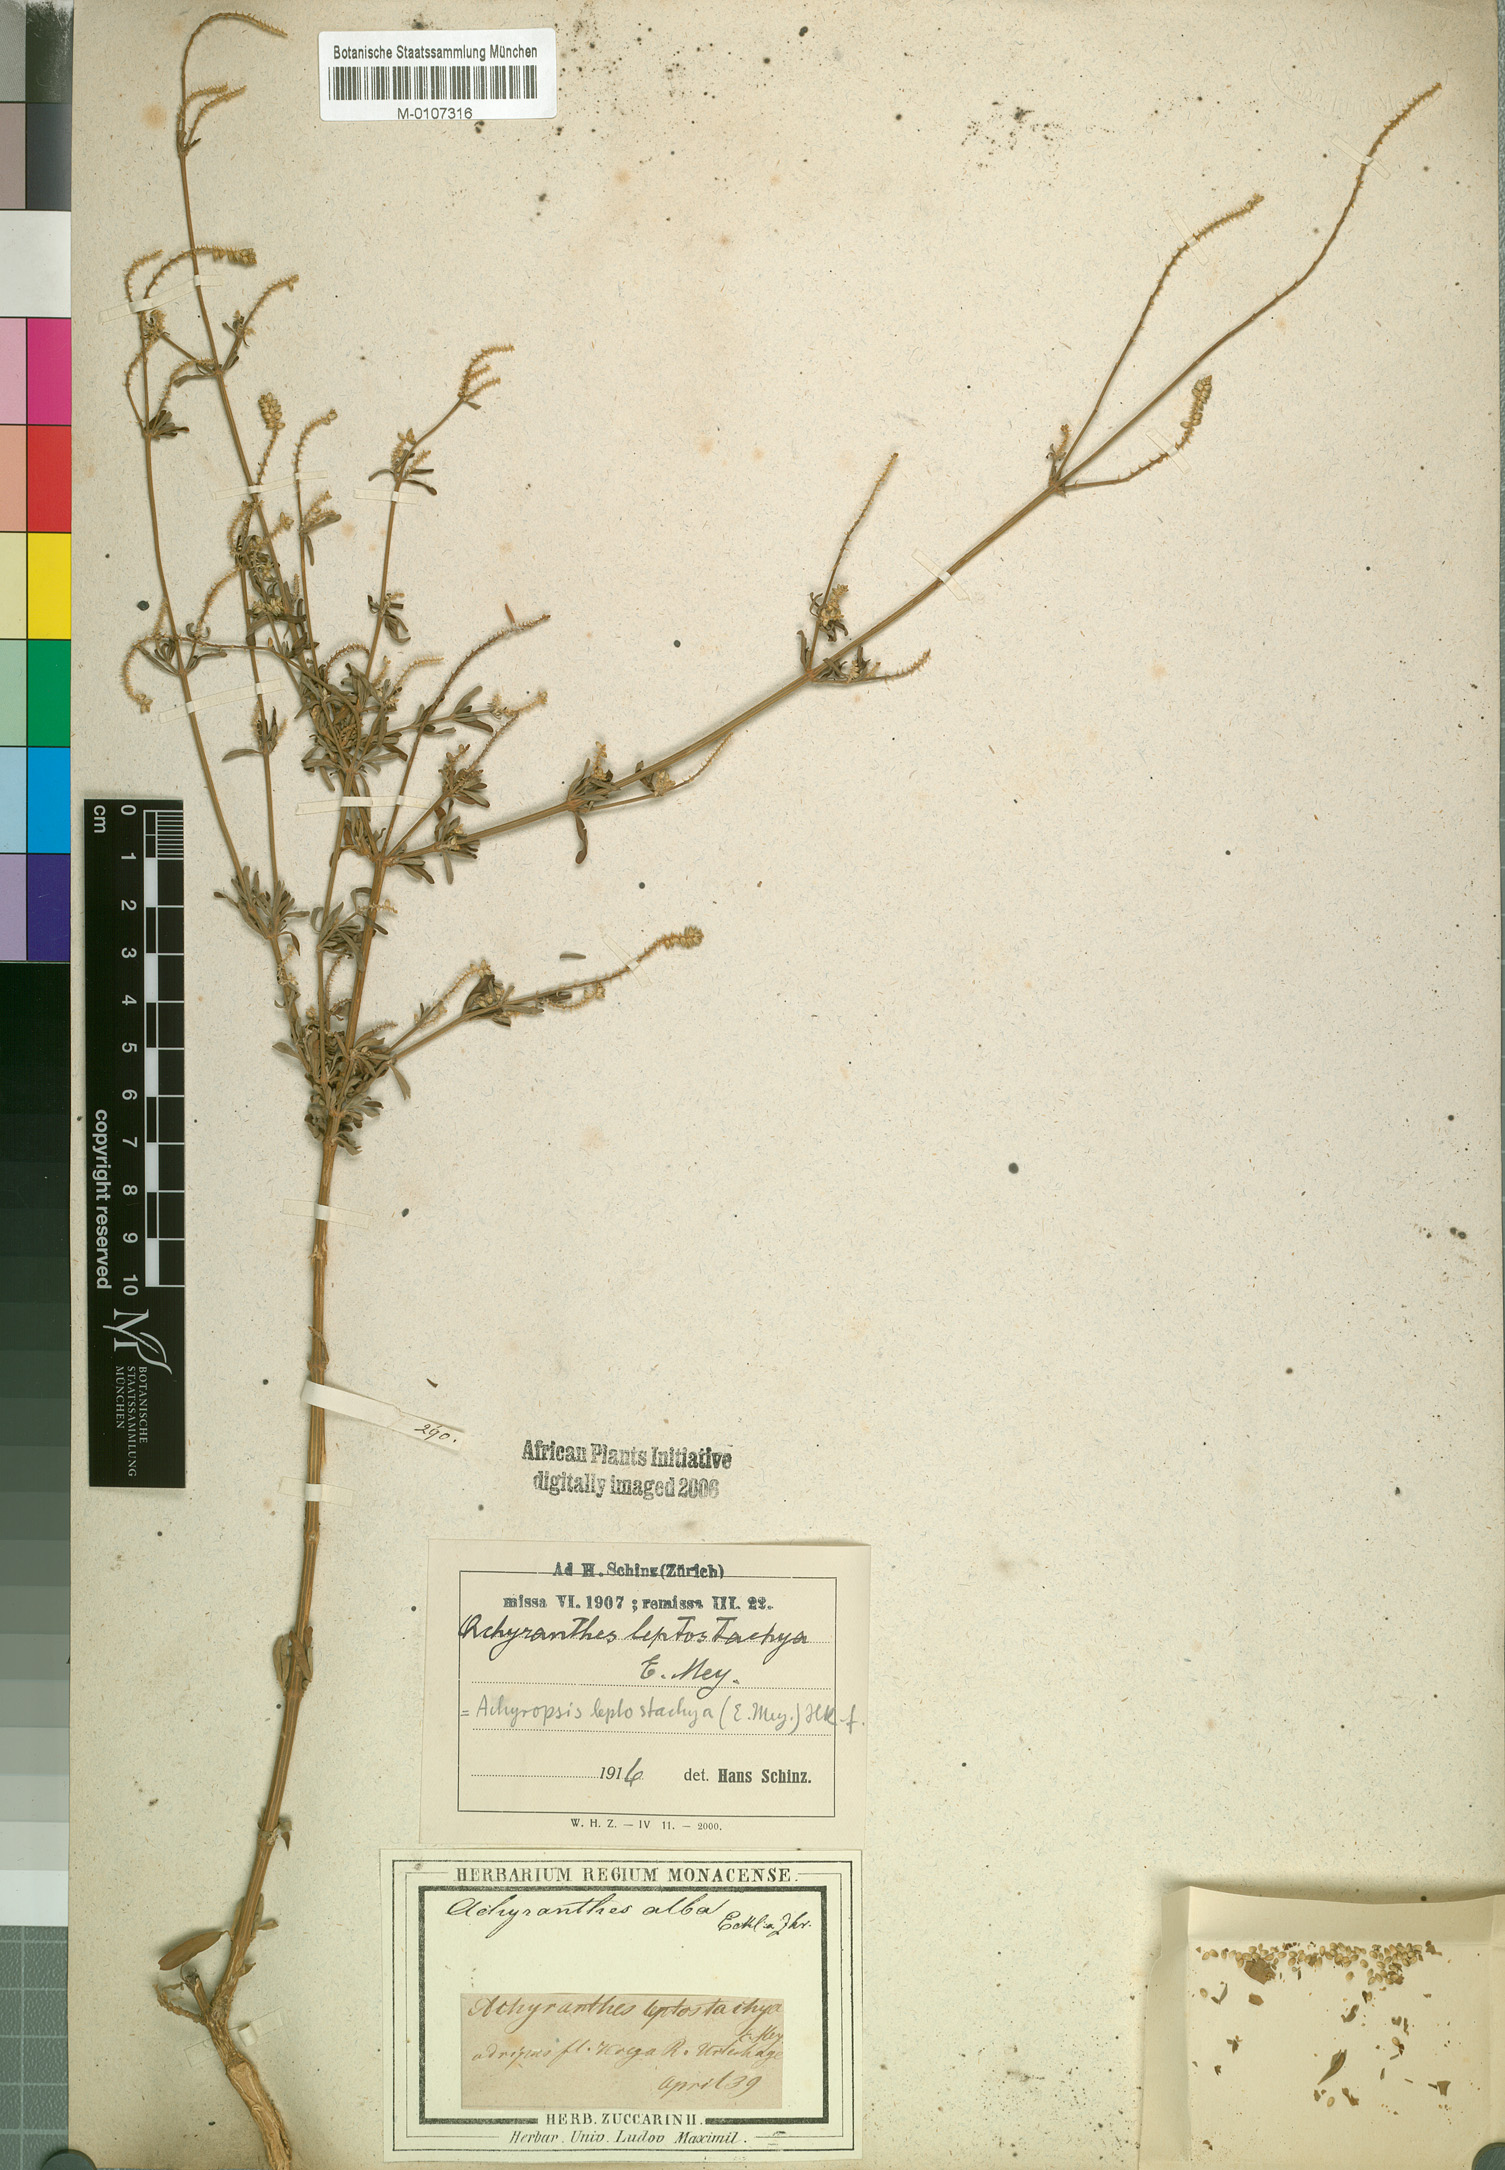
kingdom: Plantae
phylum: Tracheophyta
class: Magnoliopsida
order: Caryophyllales
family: Amaranthaceae
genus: Achyropsis
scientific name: Achyropsis leptostachya
